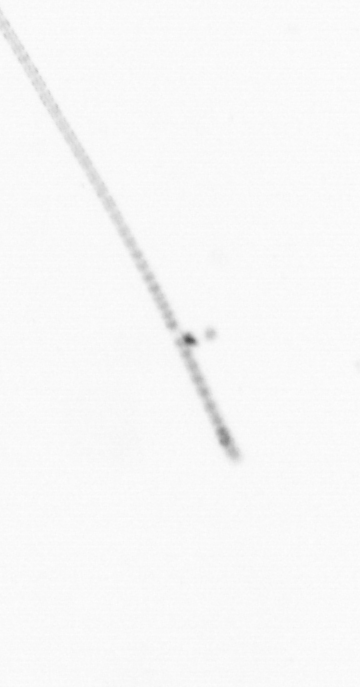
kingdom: Chromista
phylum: Ochrophyta
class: Bacillariophyceae
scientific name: Bacillariophyceae
